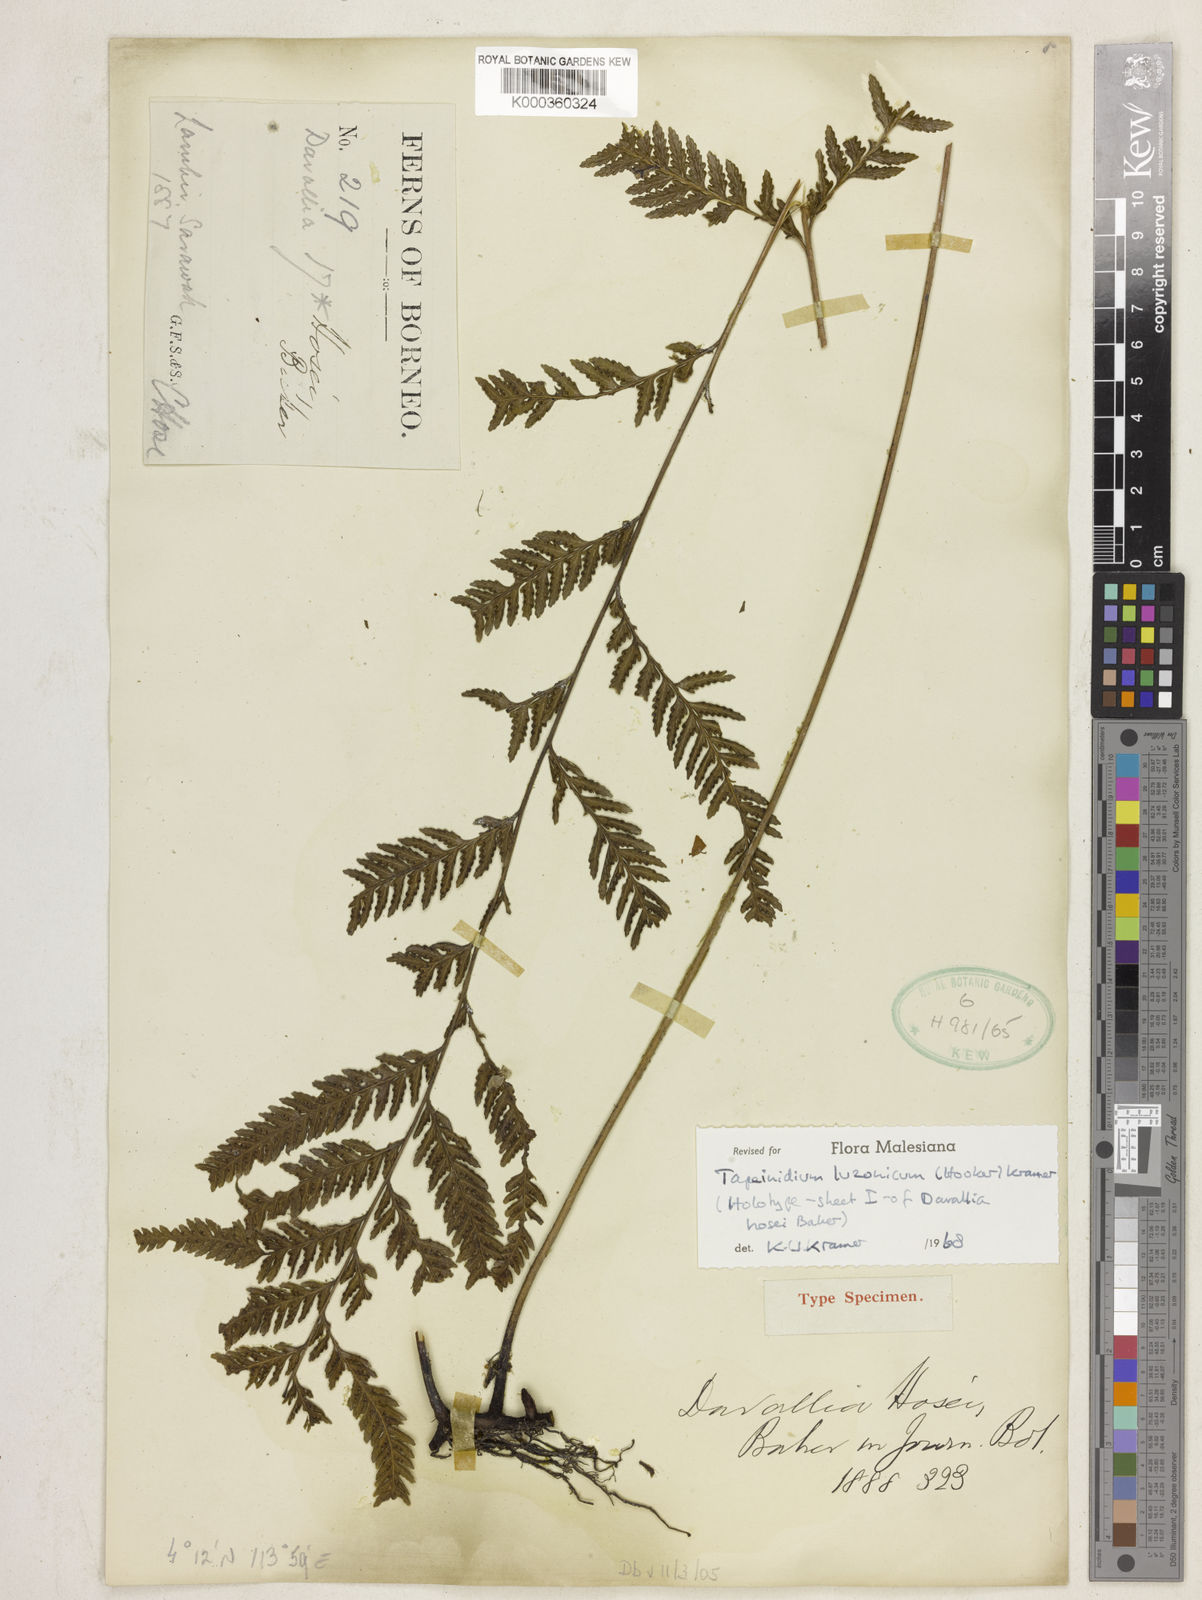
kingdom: Plantae
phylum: Tracheophyta
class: Polypodiopsida
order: Polypodiales
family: Lindsaeaceae
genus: Tapeinidium
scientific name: Tapeinidium luzonicum
